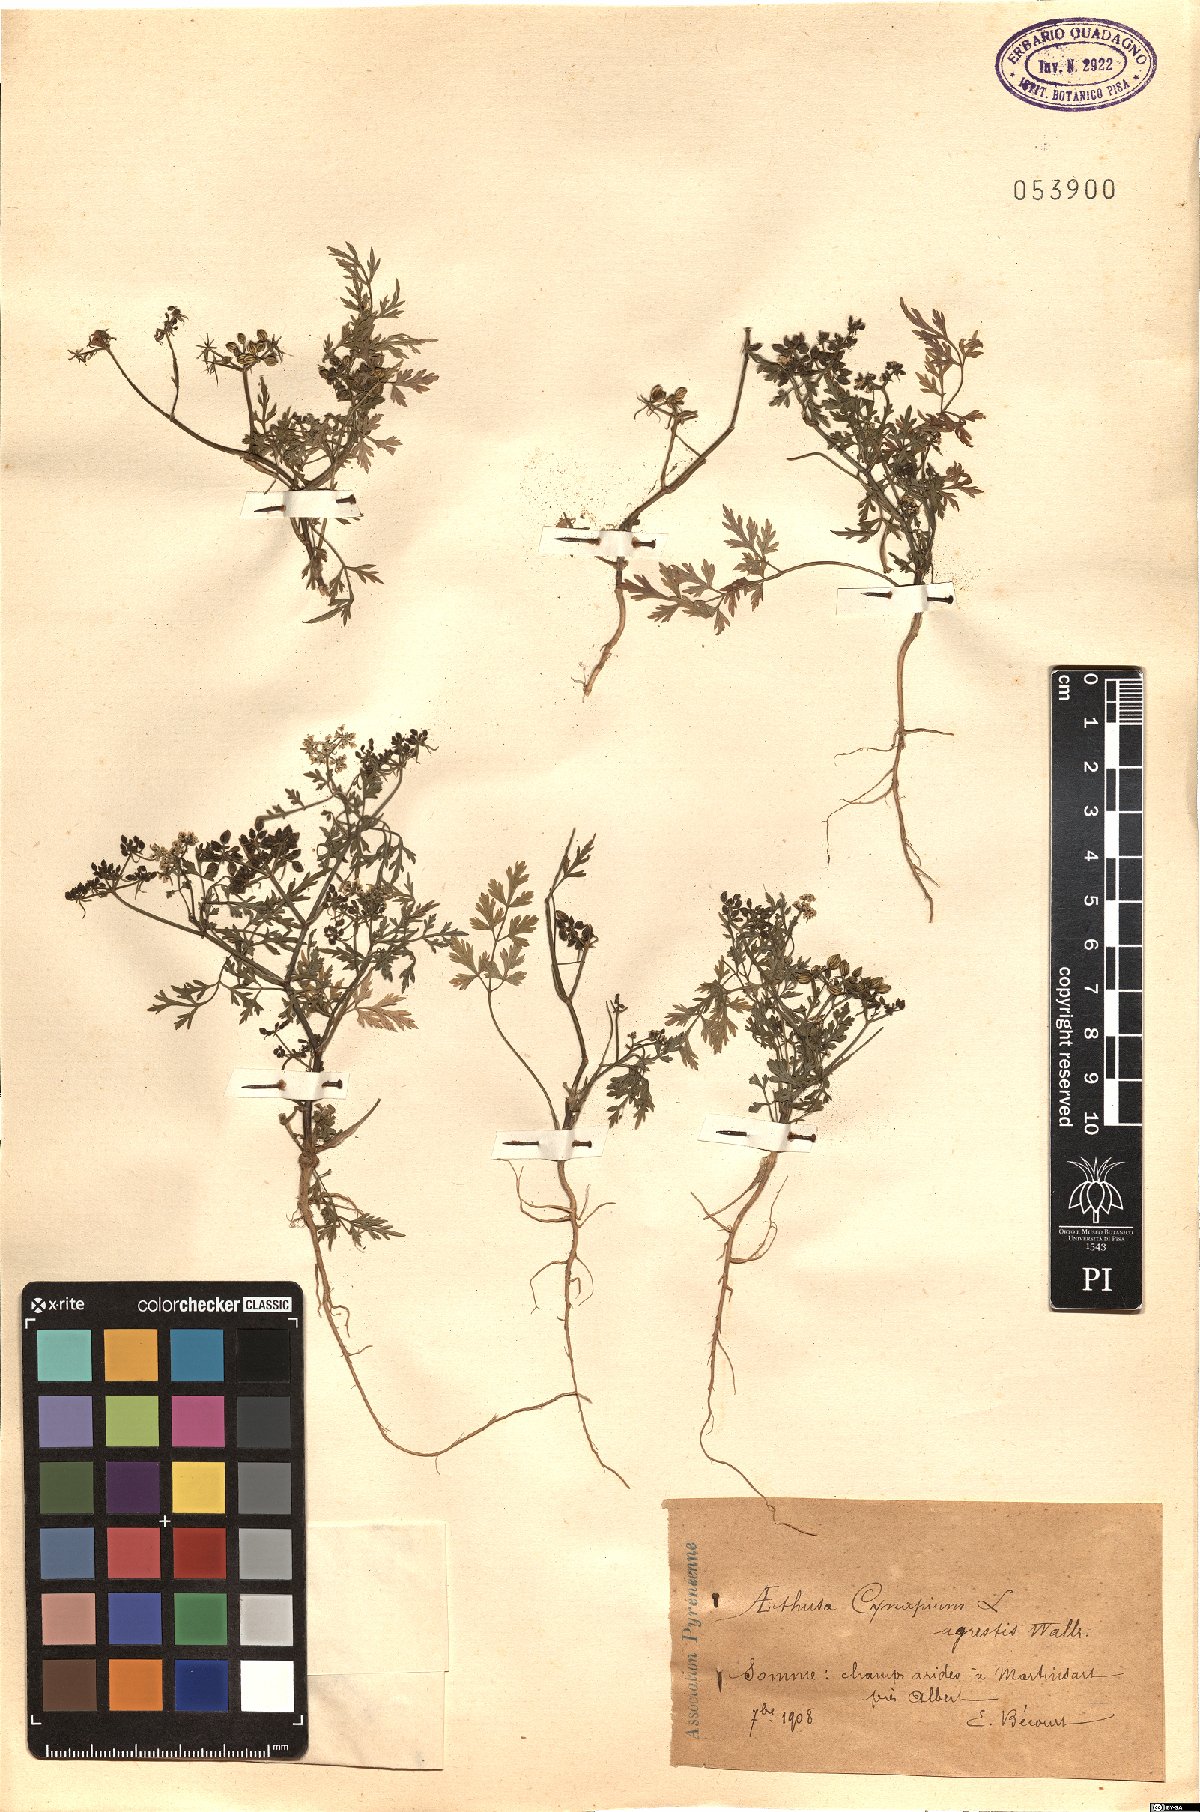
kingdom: Plantae
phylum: Tracheophyta
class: Magnoliopsida
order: Apiales
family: Apiaceae
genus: Aethusa
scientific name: Aethusa cynapium
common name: Fool's parsley
